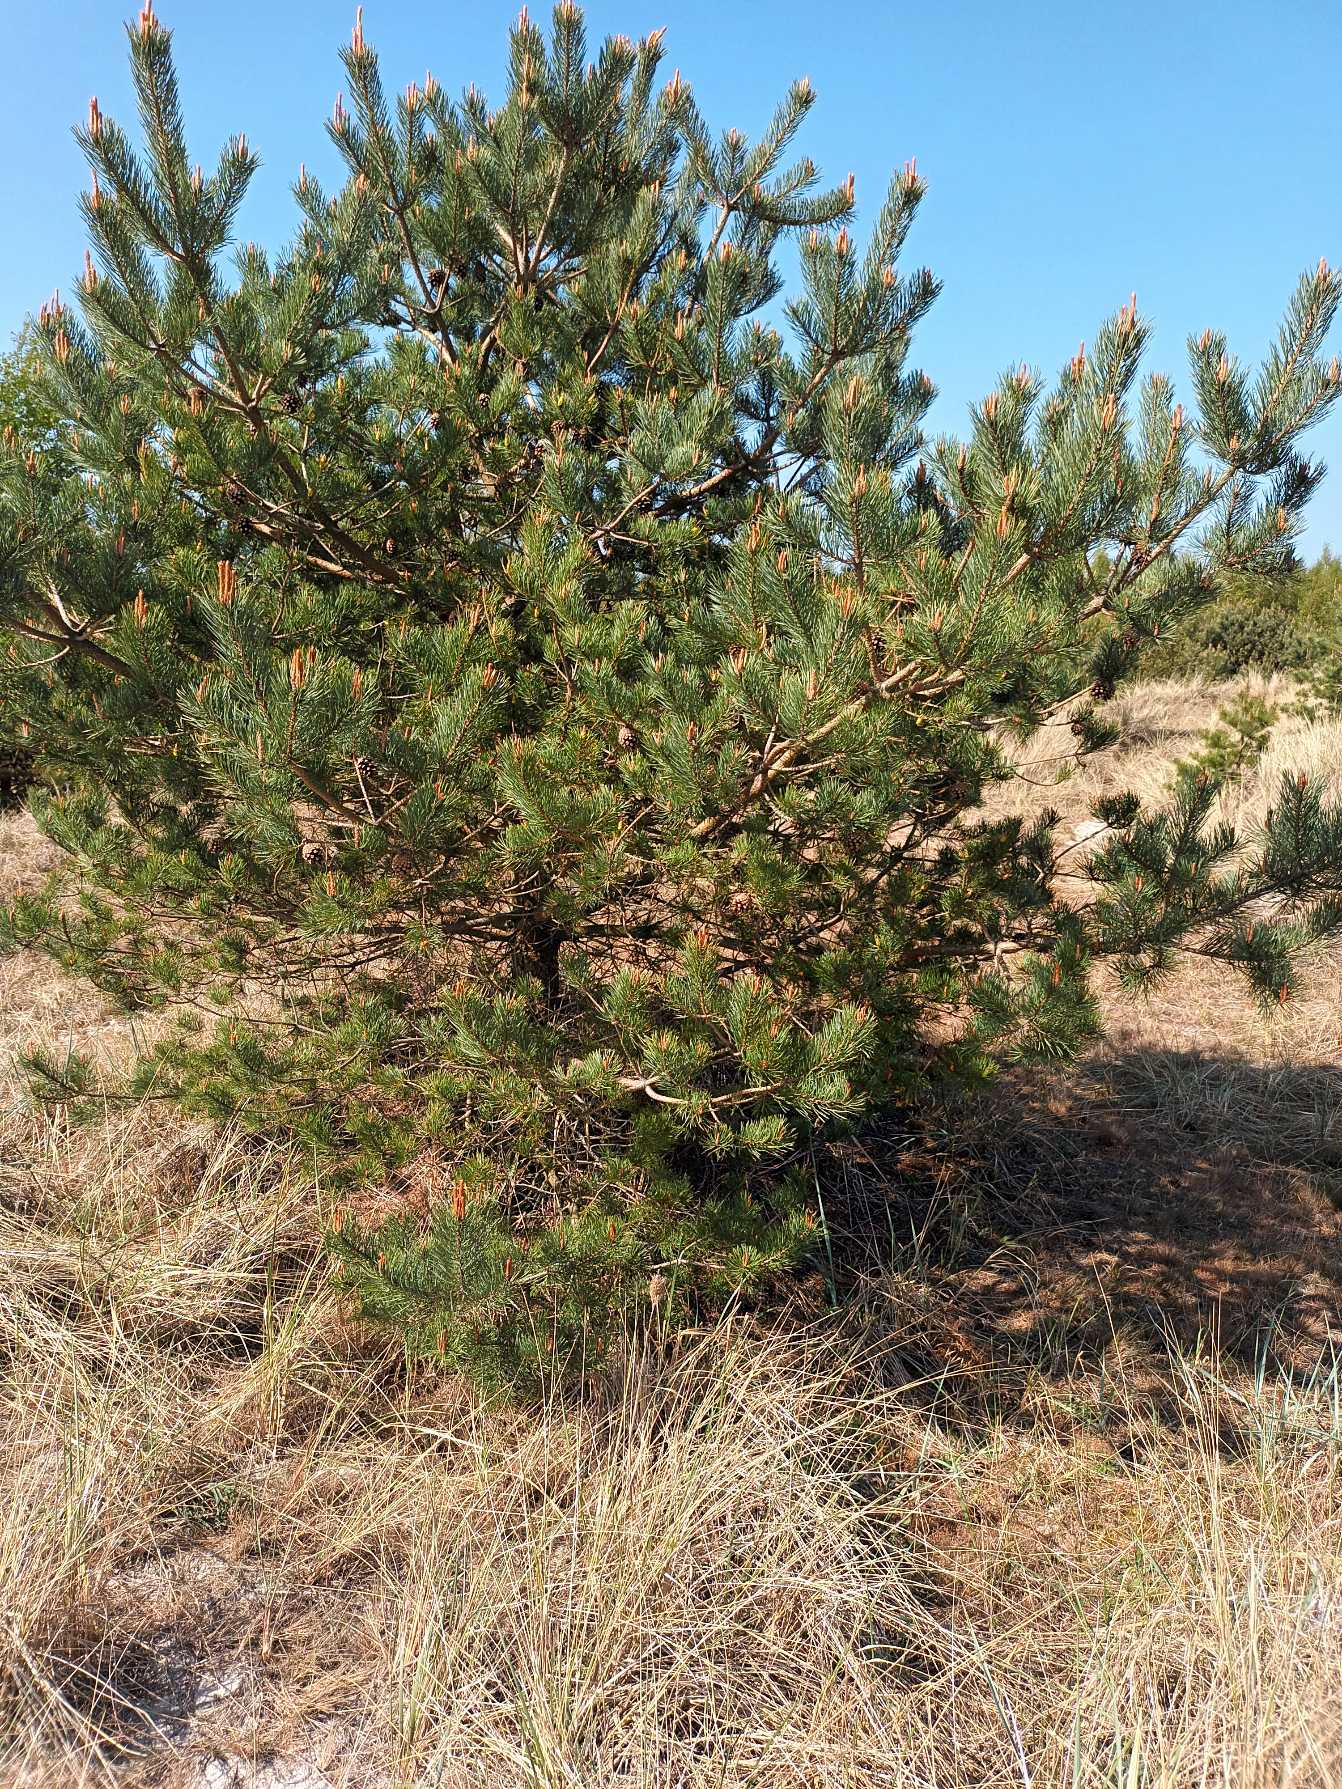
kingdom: Plantae
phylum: Tracheophyta
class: Pinopsida
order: Pinales
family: Pinaceae
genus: Pinus
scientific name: Pinus contorta
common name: Klit-fyr
